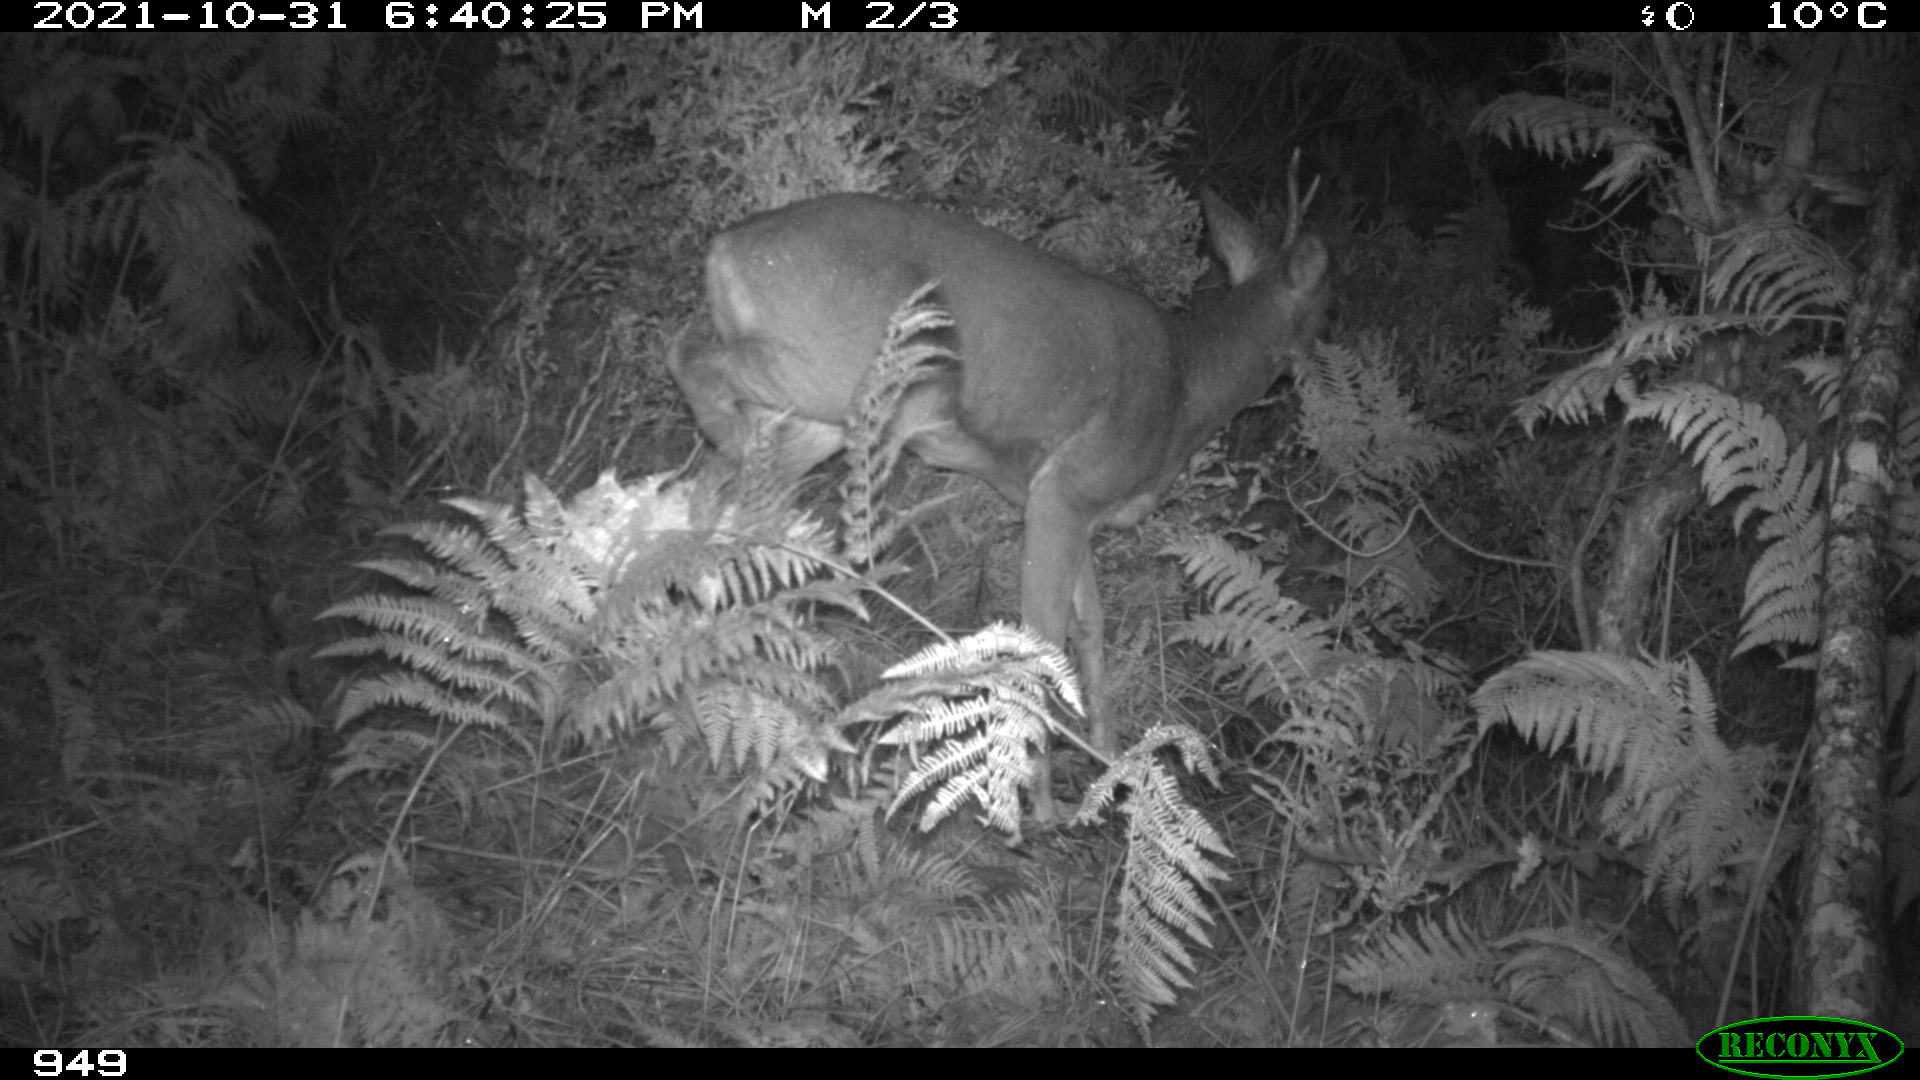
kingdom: Animalia
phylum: Chordata
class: Mammalia
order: Artiodactyla
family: Cervidae
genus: Capreolus
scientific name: Capreolus capreolus
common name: Western roe deer
